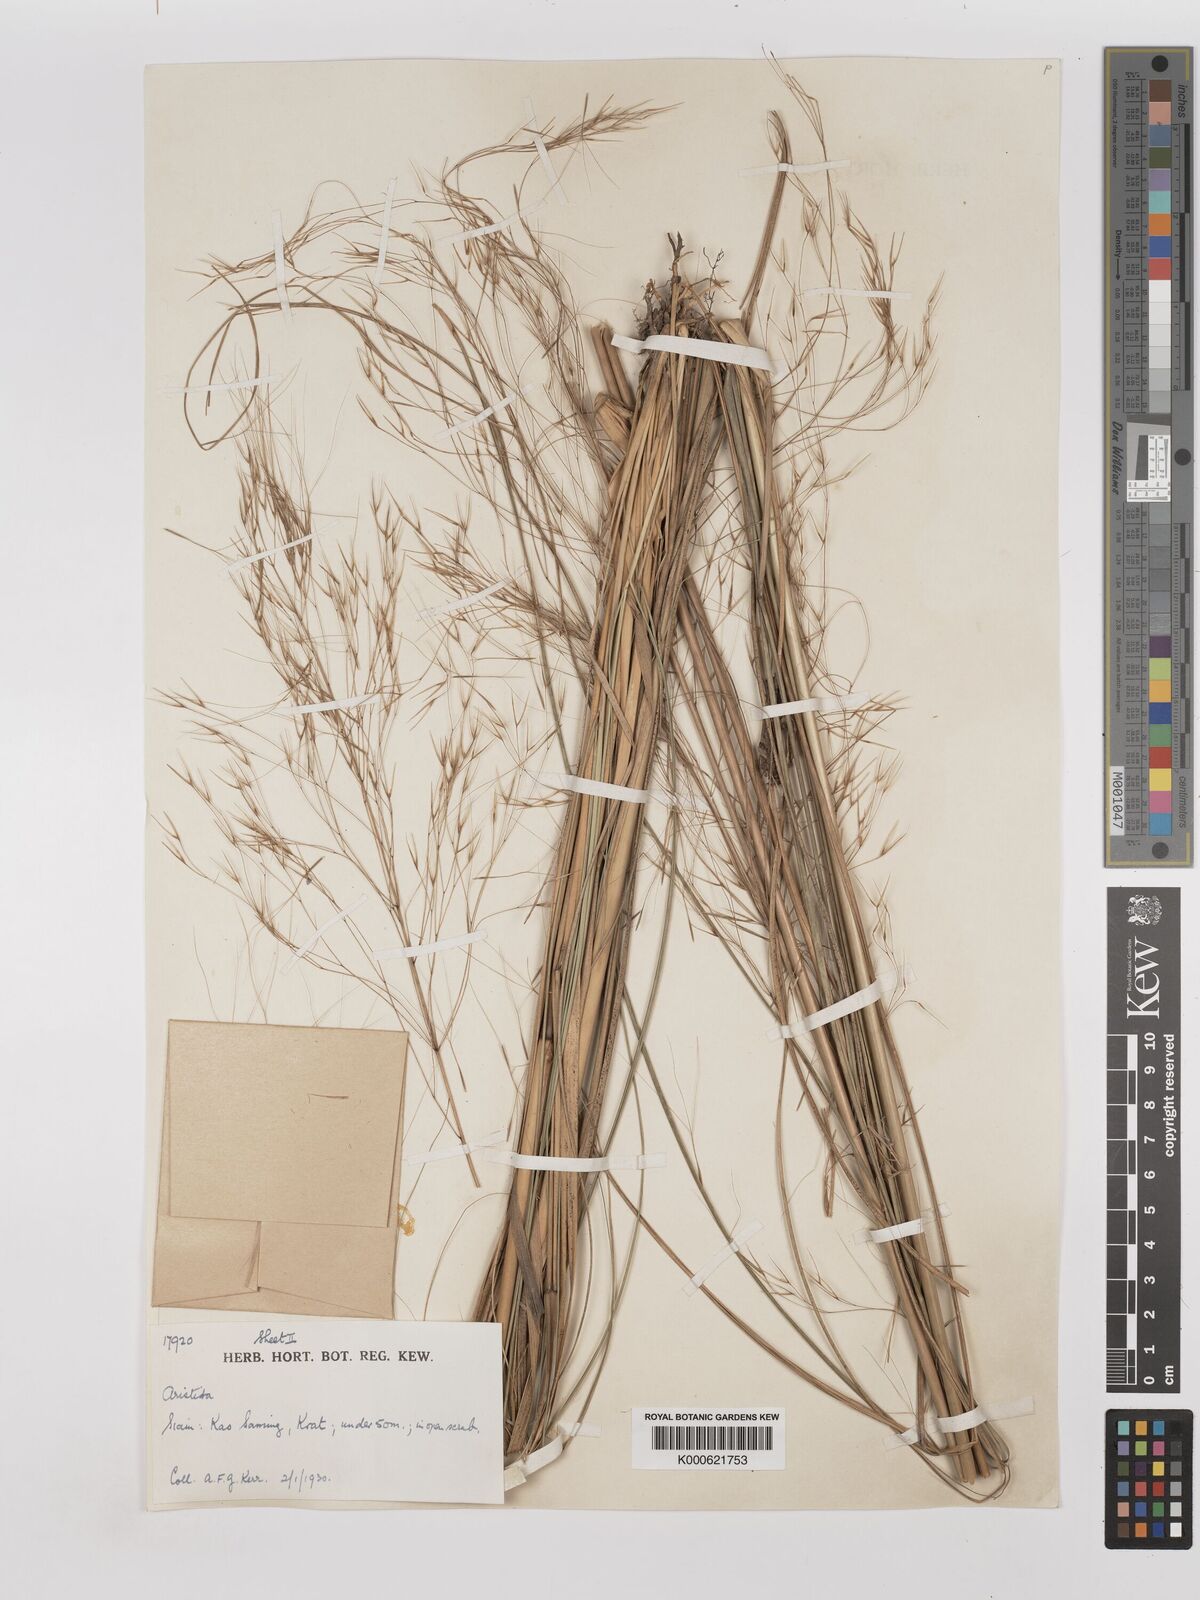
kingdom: Plantae
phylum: Tracheophyta
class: Liliopsida
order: Poales
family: Poaceae
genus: Aristida
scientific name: Aristida culionensis
